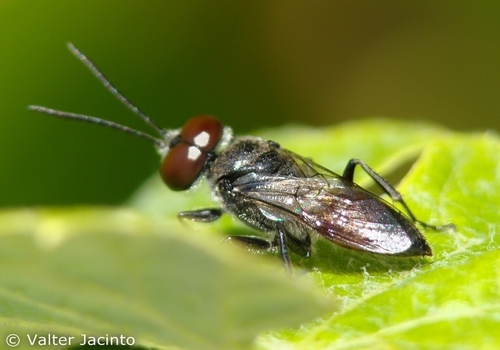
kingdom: Animalia
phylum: Arthropoda
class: Insecta
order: Hymenoptera
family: Crabronidae
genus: Astata
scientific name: Astata
